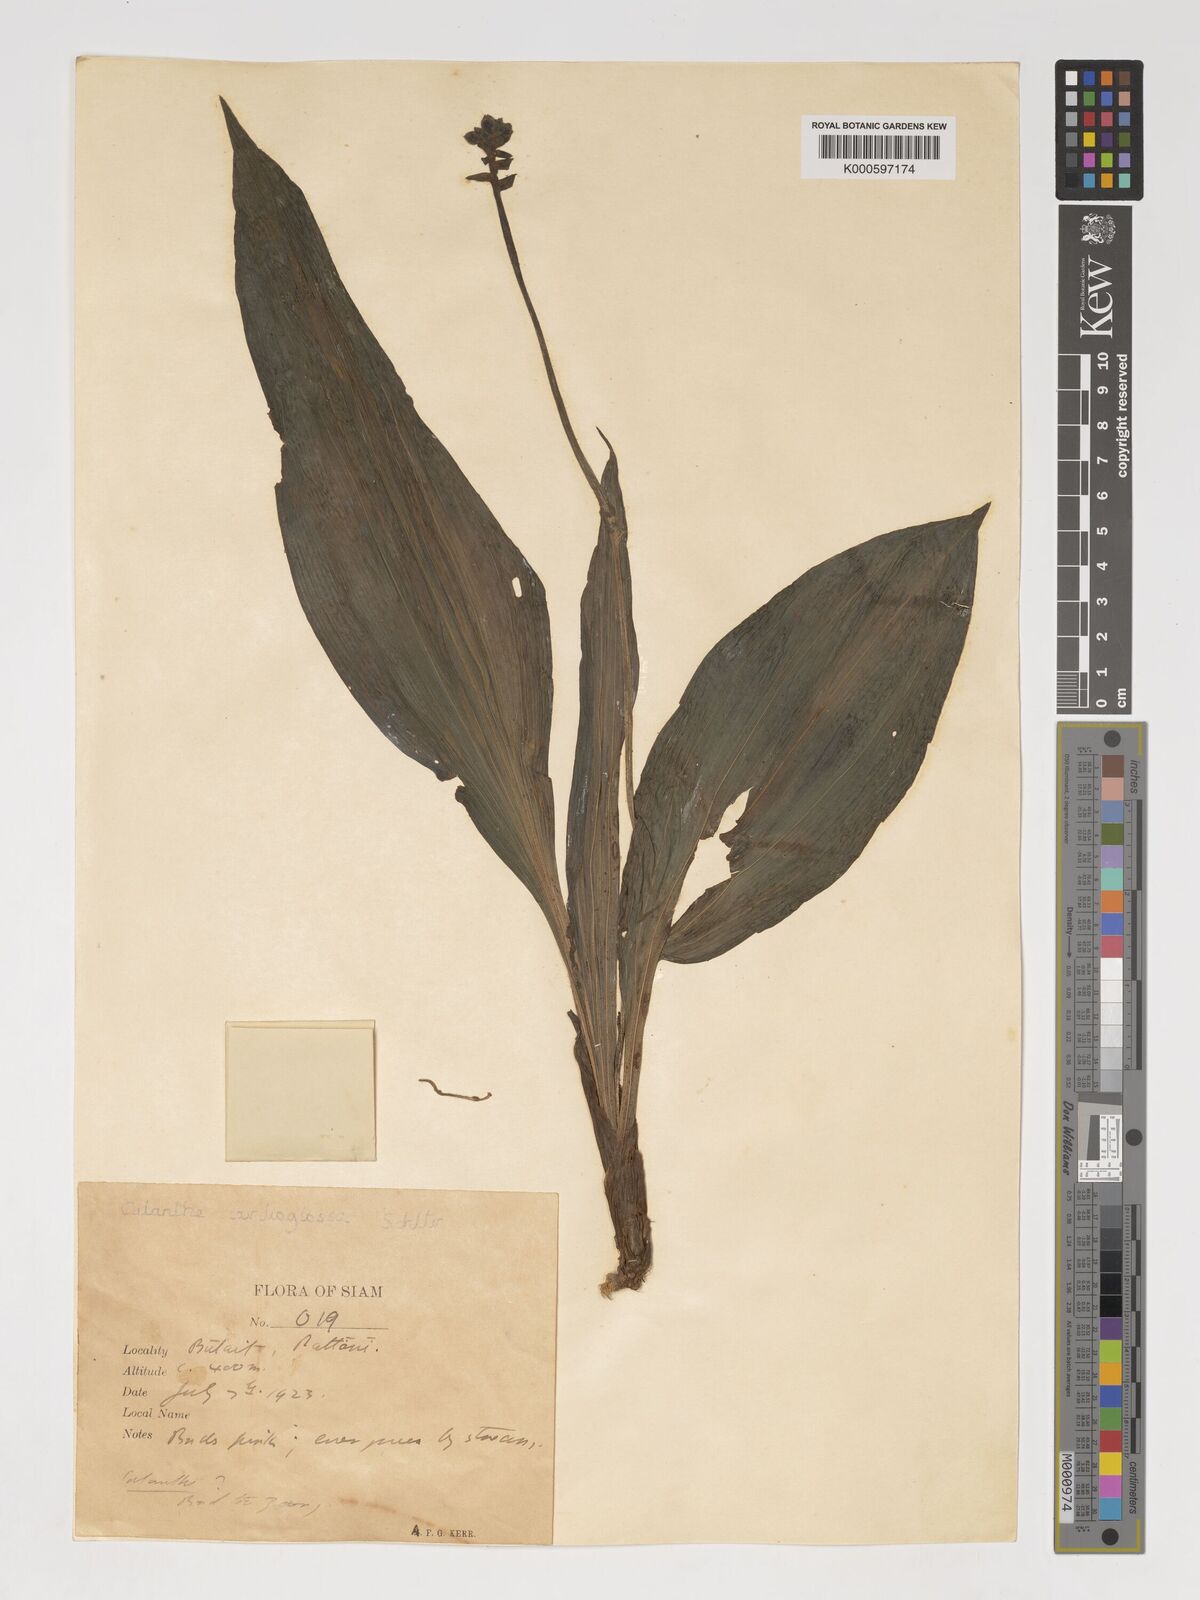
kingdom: Plantae
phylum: Tracheophyta
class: Liliopsida
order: Asparagales
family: Orchidaceae
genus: Calanthe
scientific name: Calanthe cardioglossa
